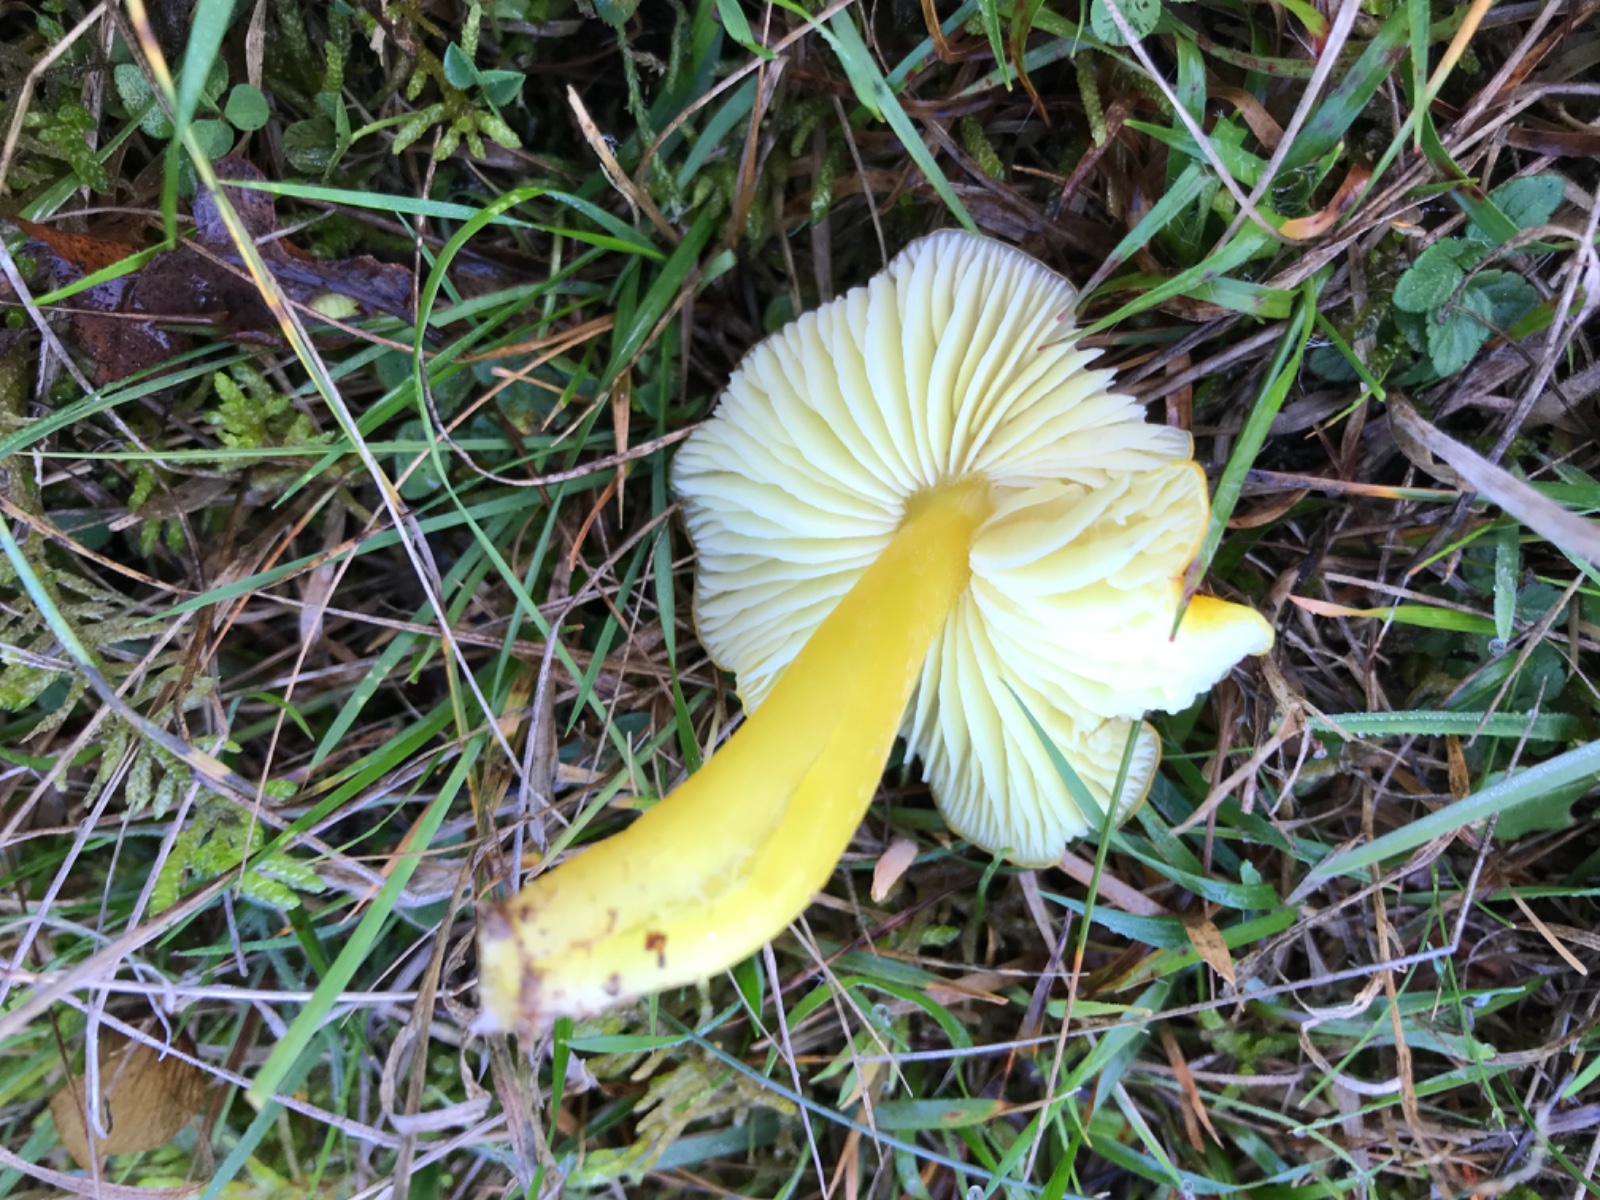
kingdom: Fungi
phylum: Basidiomycota
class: Agaricomycetes
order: Agaricales
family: Hygrophoraceae
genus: Hygrocybe
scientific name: Hygrocybe chlorophana
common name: gul vokshat
